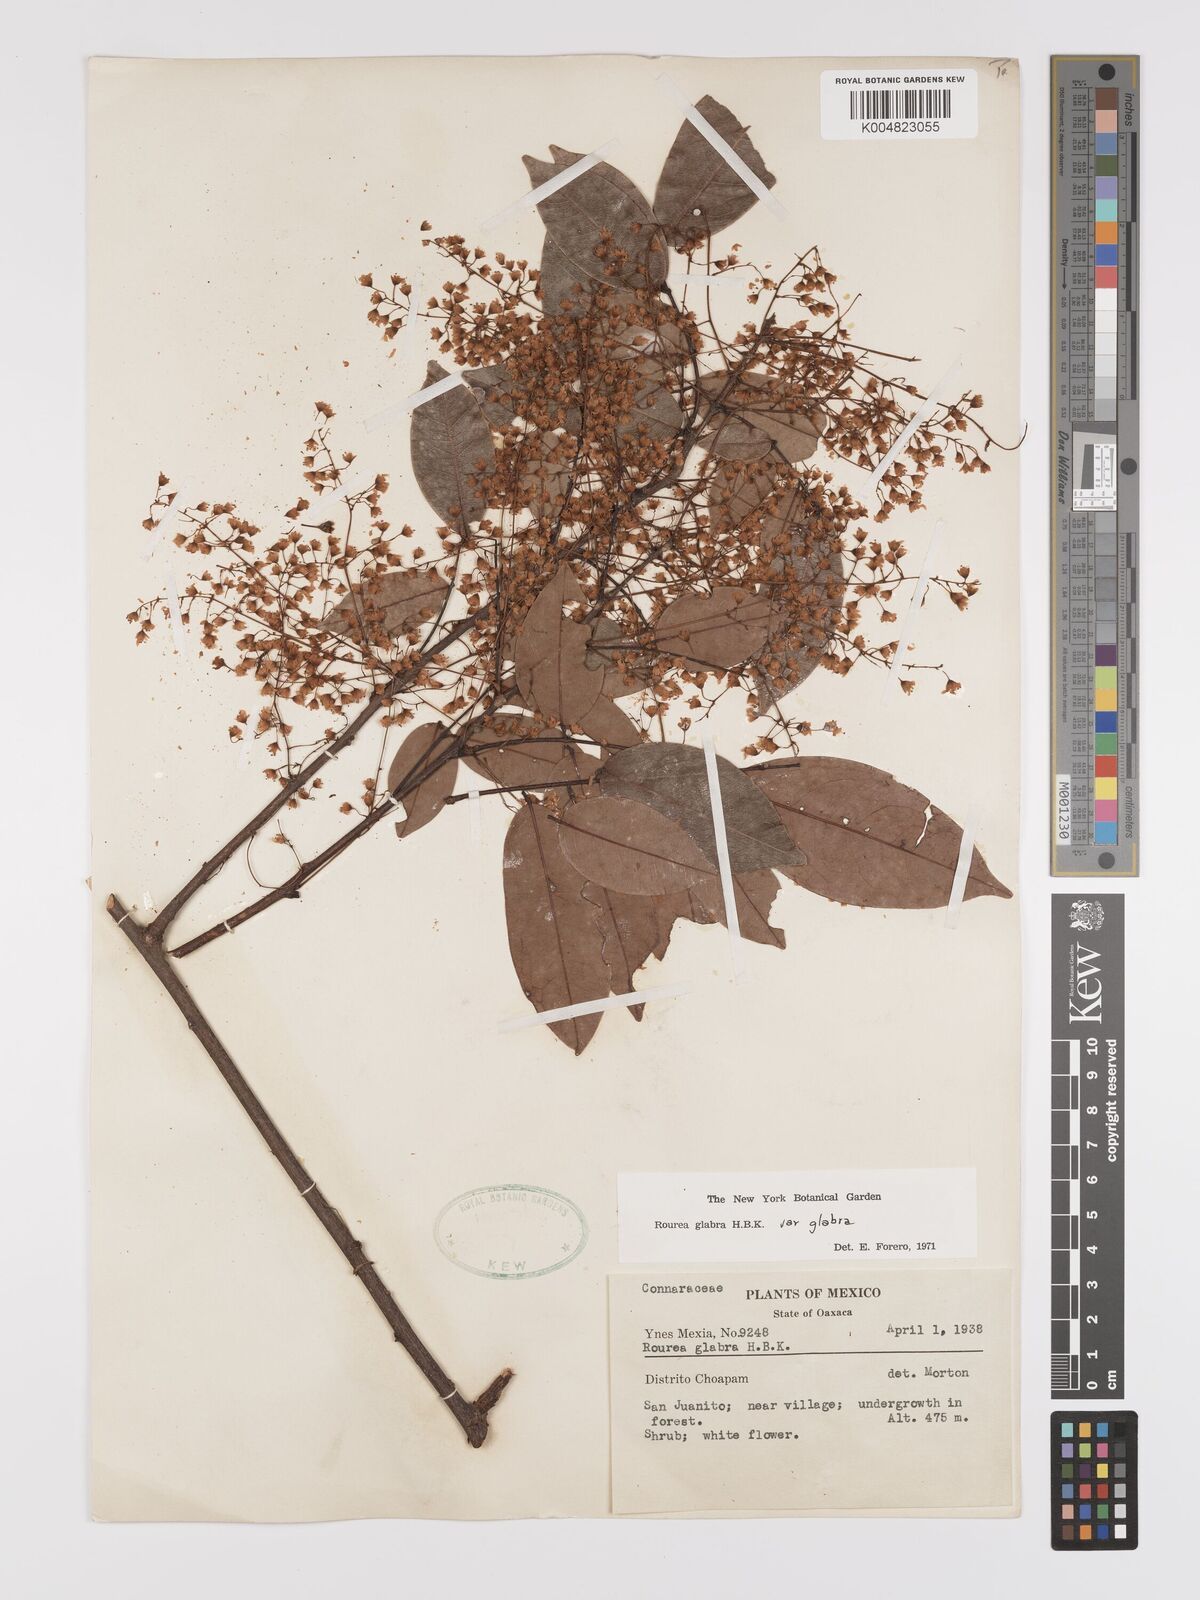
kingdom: Plantae
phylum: Tracheophyta
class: Magnoliopsida
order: Oxalidales
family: Connaraceae
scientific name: Connaraceae
